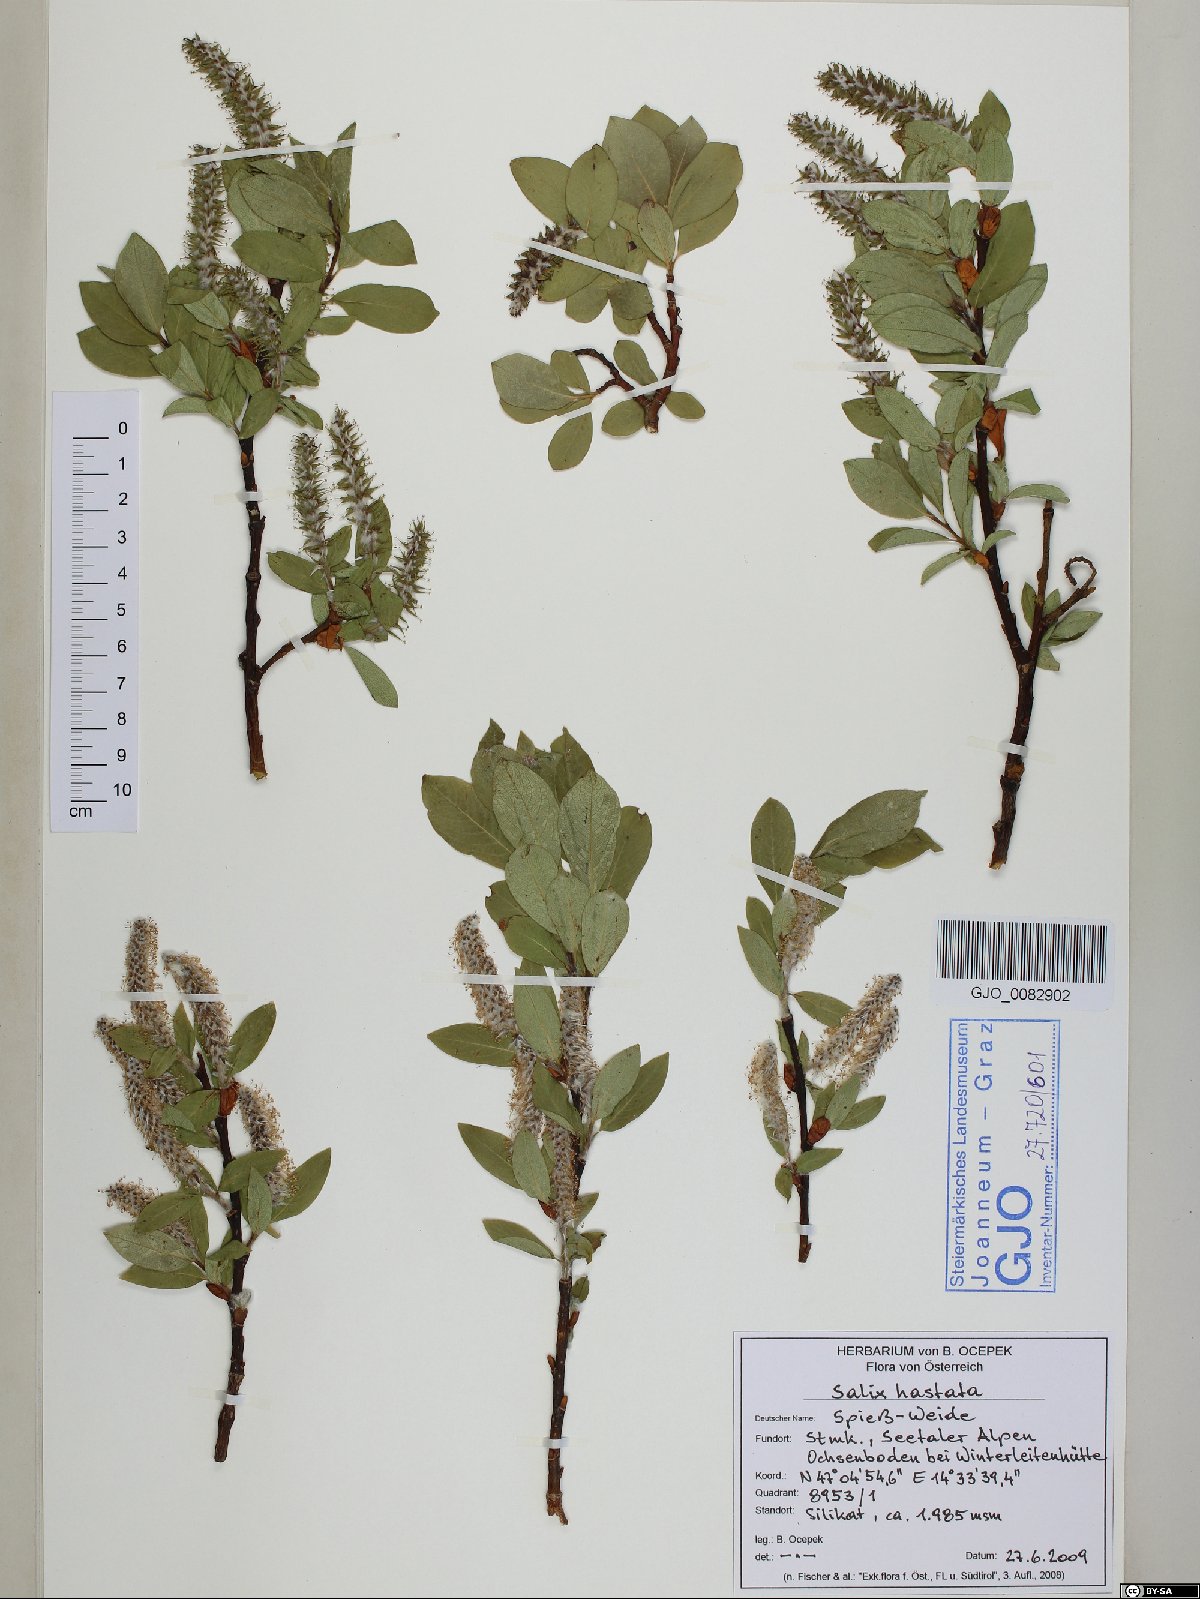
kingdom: Plantae
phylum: Tracheophyta
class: Magnoliopsida
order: Malpighiales
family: Salicaceae
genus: Salix
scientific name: Salix hastata
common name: Halberd willow
